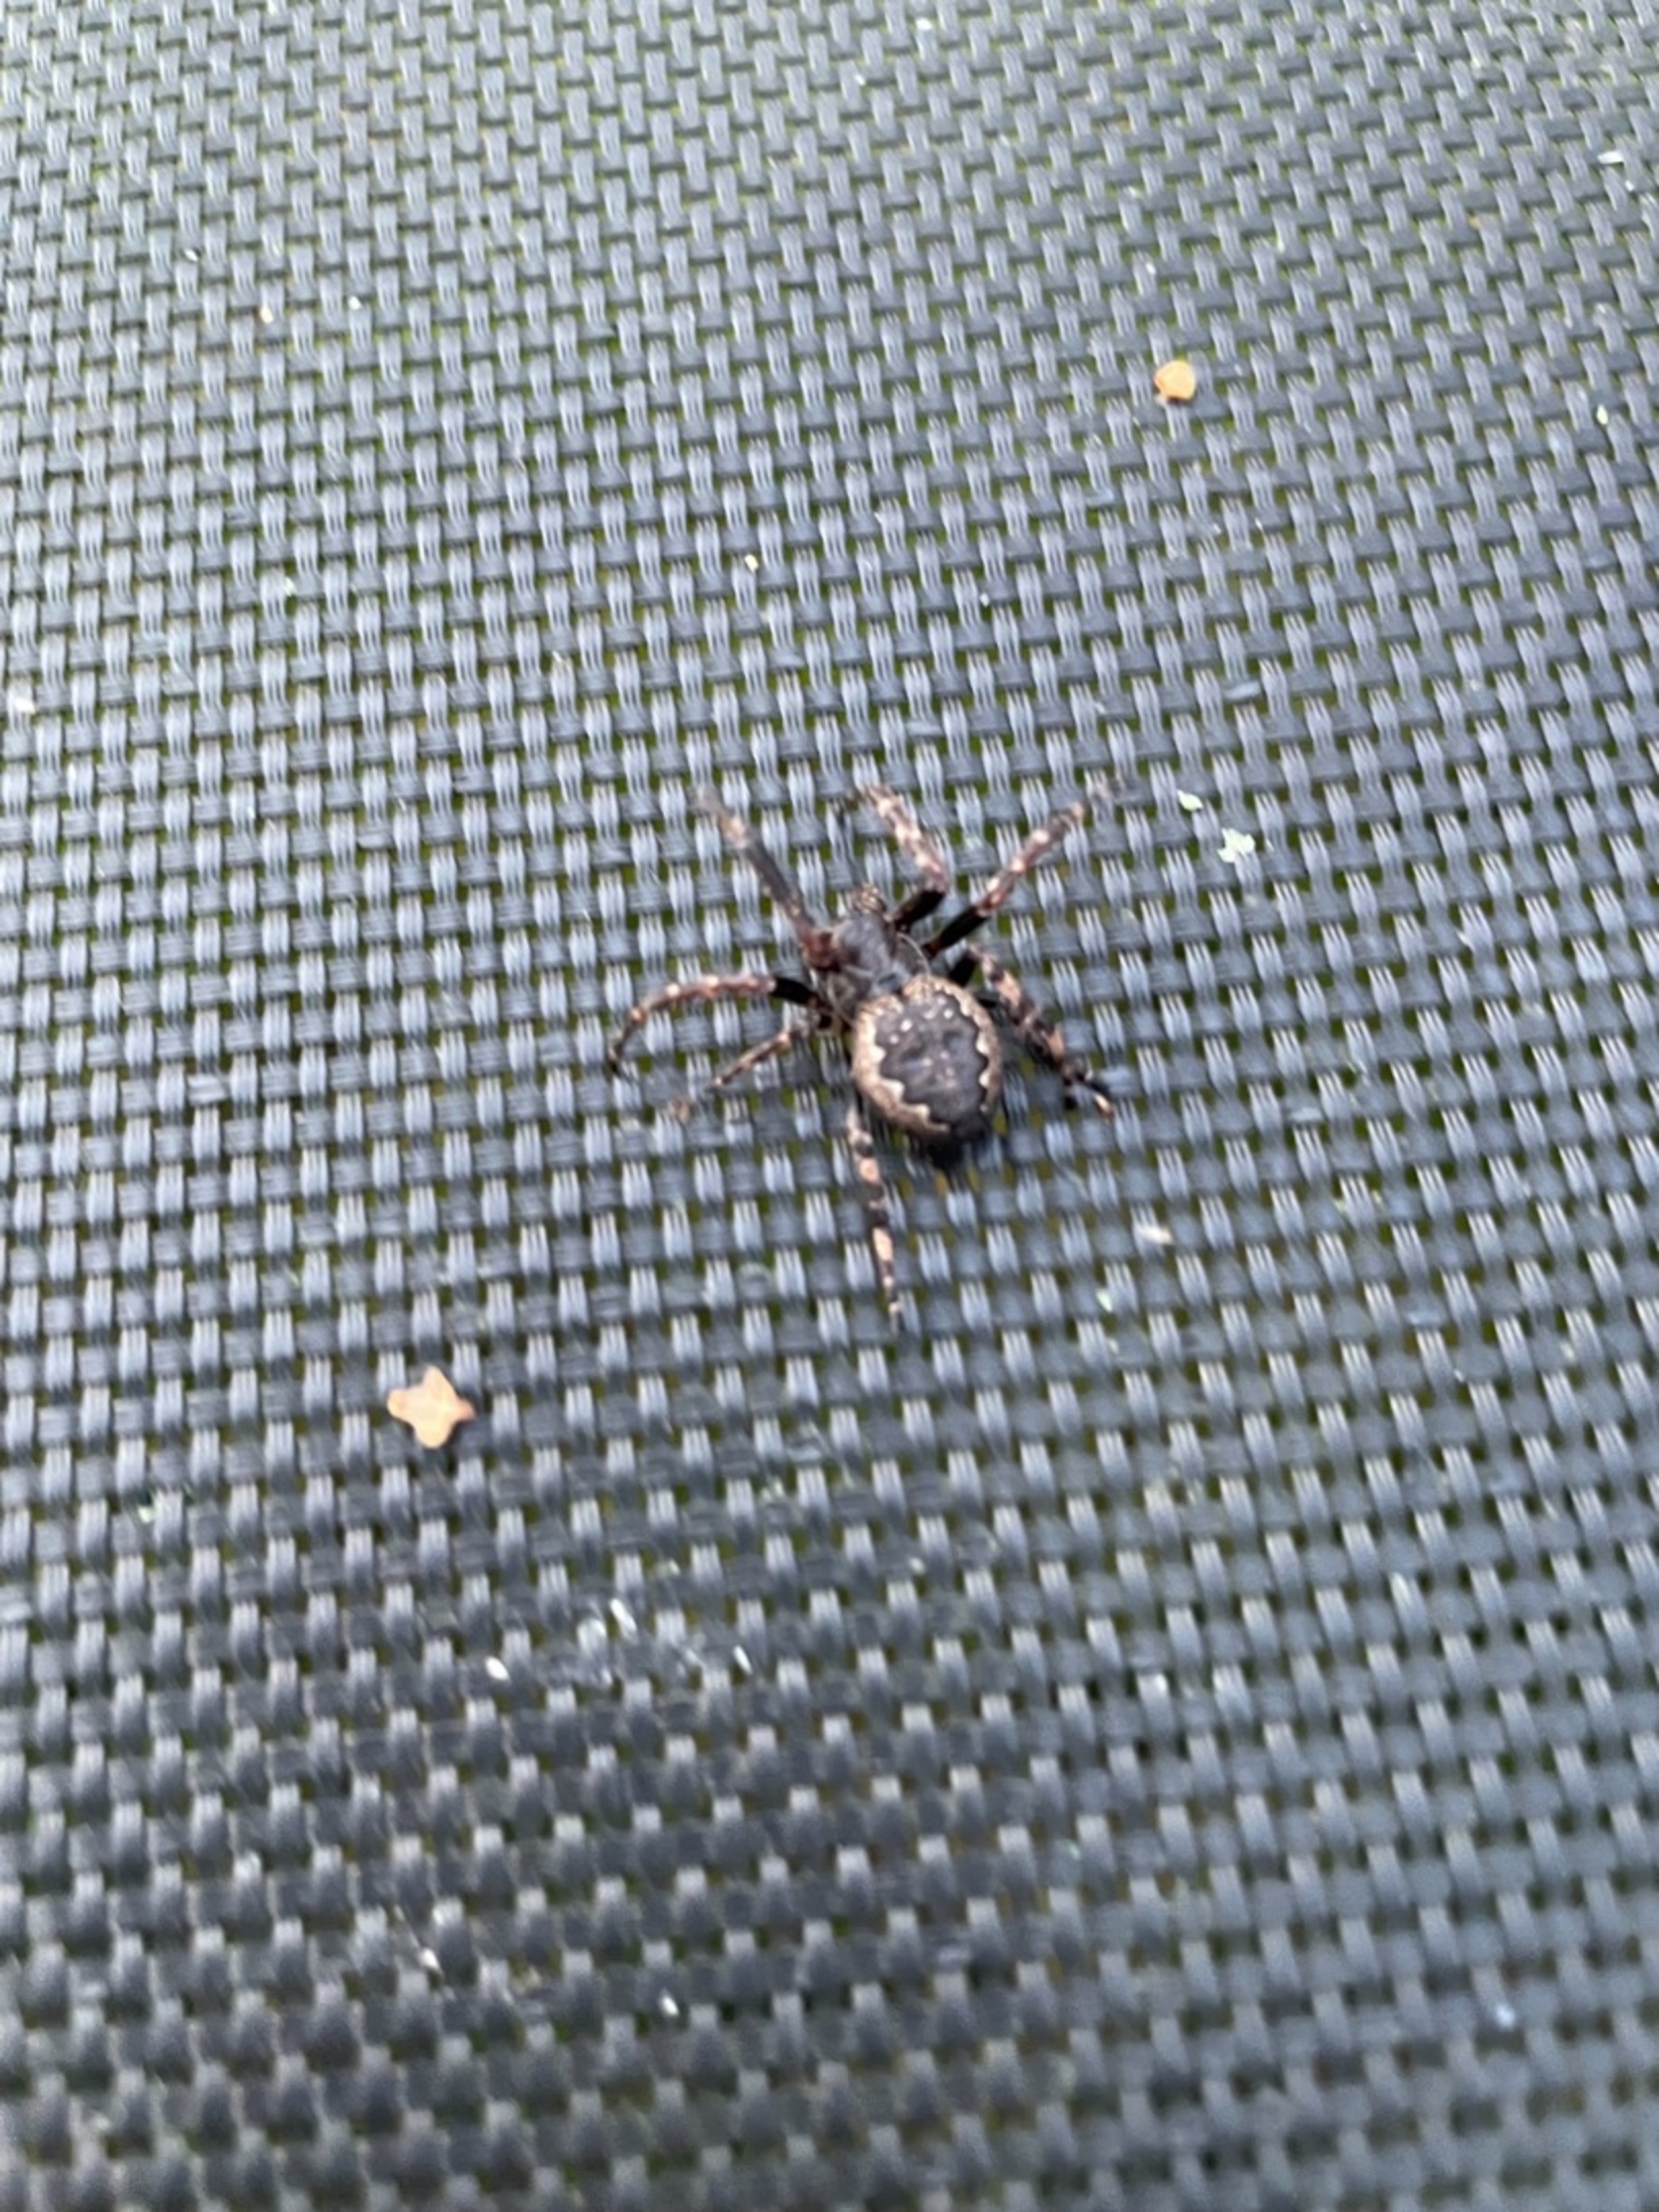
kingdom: Animalia
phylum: Arthropoda
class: Arachnida
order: Araneae
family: Araneidae
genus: Nuctenea
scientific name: Nuctenea umbratica
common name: Flad hjulspinder
